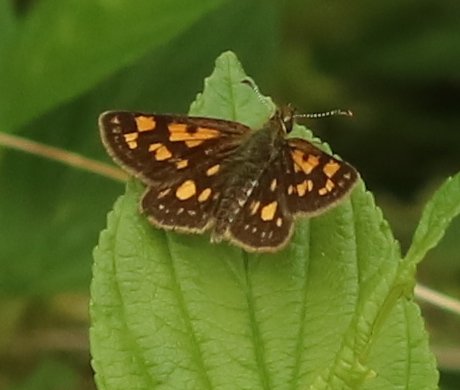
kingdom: Animalia
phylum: Arthropoda
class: Insecta
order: Lepidoptera
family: Hesperiidae
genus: Carterocephalus
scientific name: Carterocephalus palaemon
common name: Chequered Skipper
